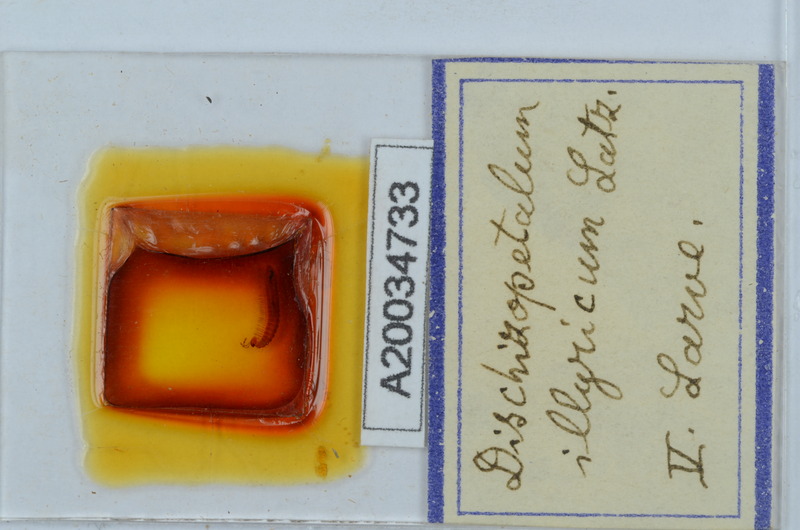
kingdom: Animalia
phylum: Arthropoda
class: Diplopoda
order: Callipodida
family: Schizopetalidae
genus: Dischizopetalum
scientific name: Dischizopetalum illyricum
